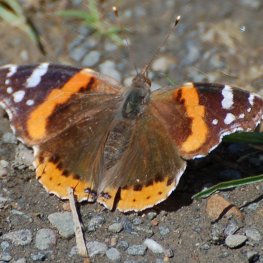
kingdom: Animalia
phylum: Arthropoda
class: Insecta
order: Lepidoptera
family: Nymphalidae
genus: Vanessa
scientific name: Vanessa atalanta
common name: Red Admiral
